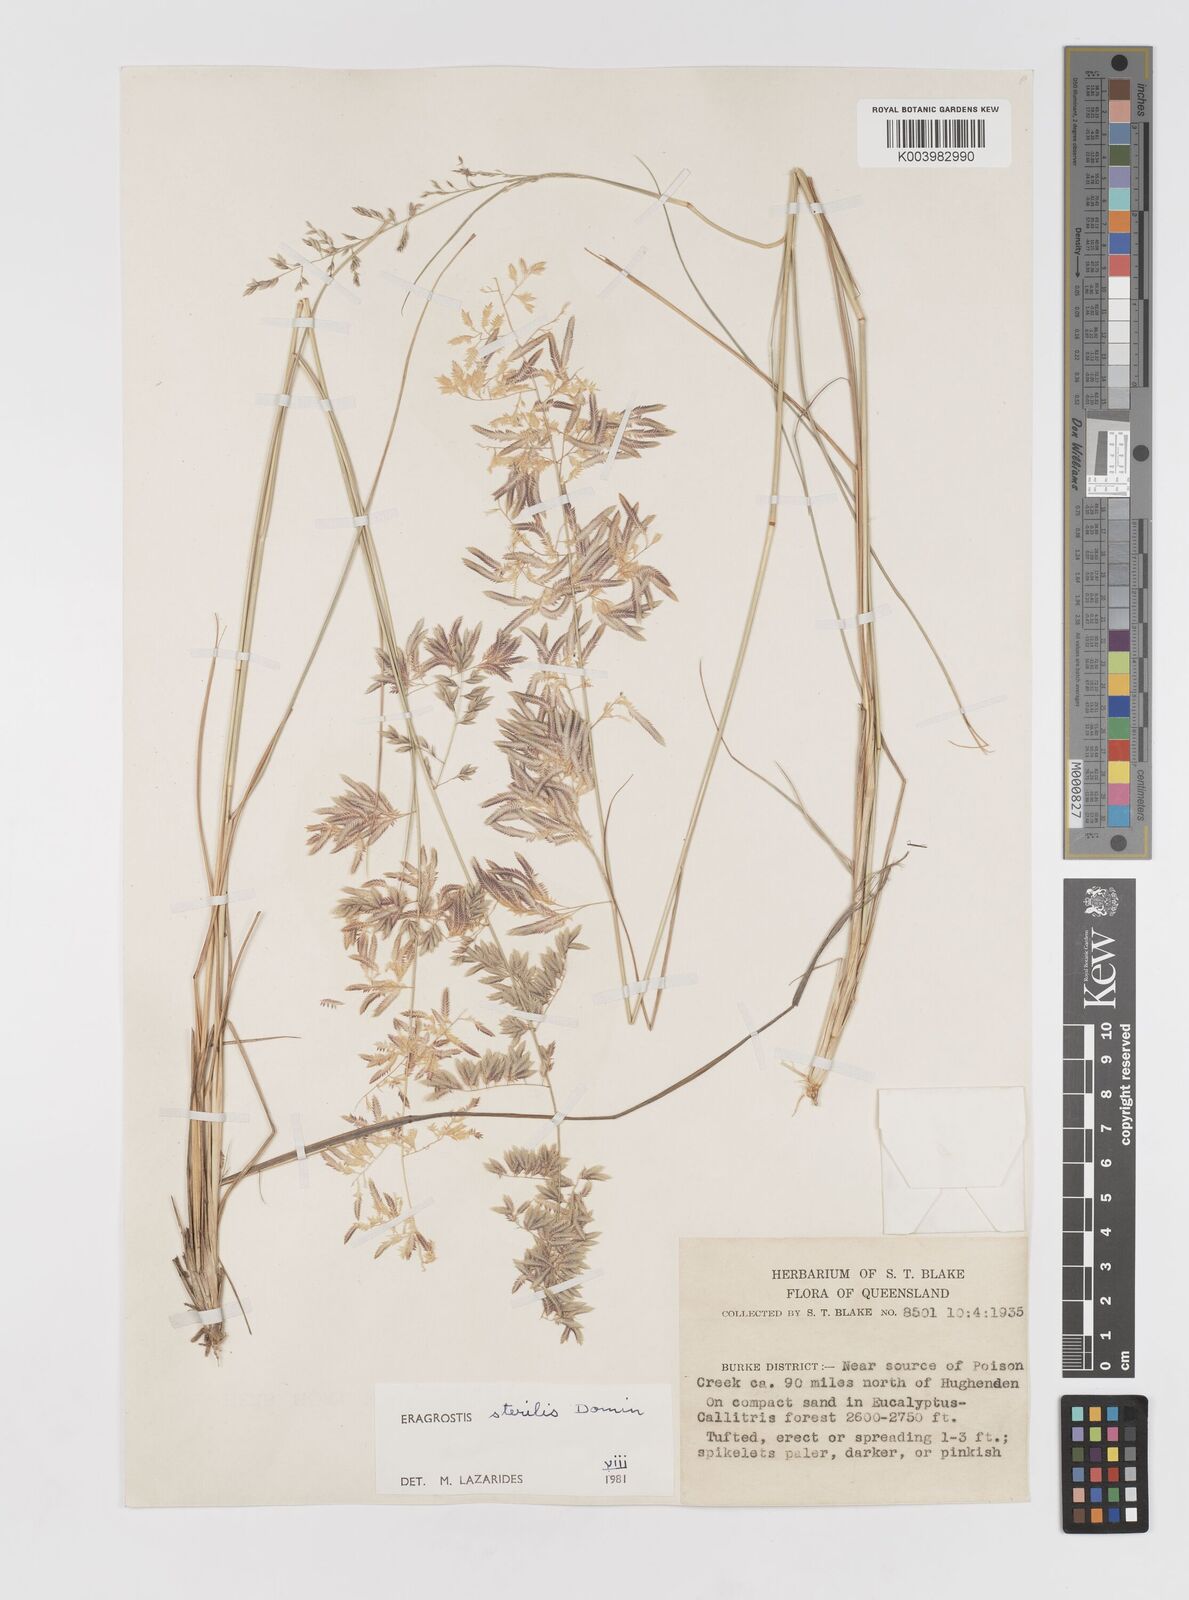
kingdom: Plantae
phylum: Tracheophyta
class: Liliopsida
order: Poales
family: Poaceae
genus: Eragrostis
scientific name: Eragrostis sterilis
